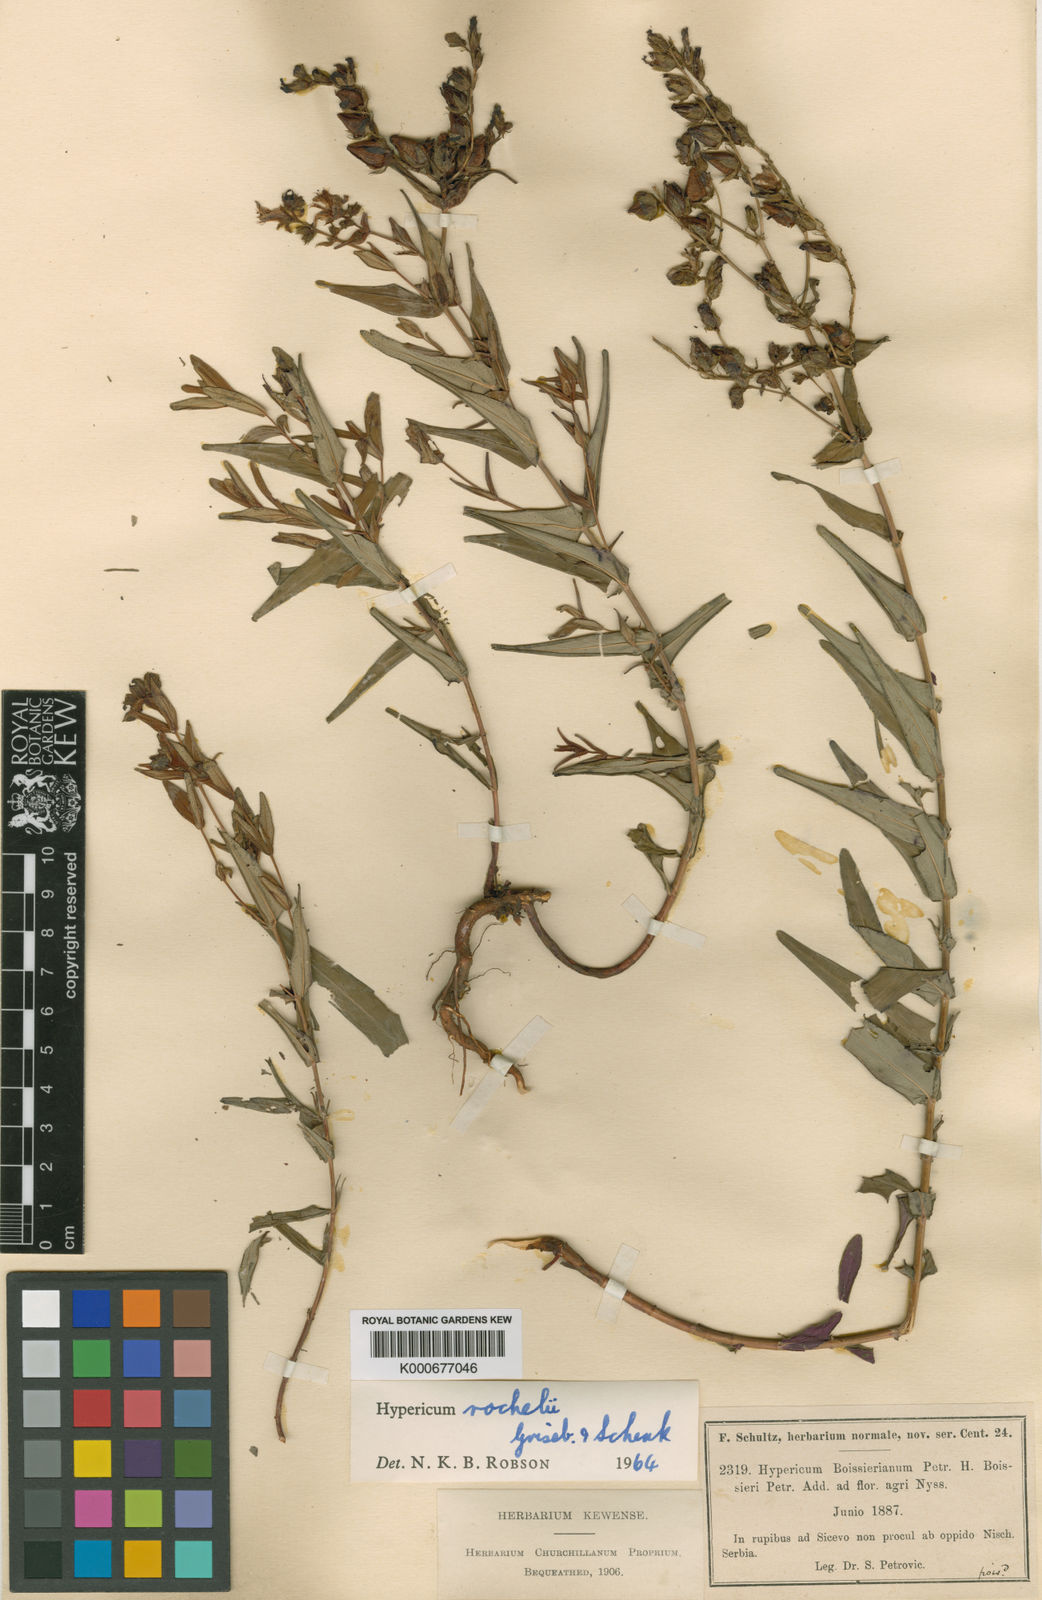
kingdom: Plantae
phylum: Tracheophyta
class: Magnoliopsida
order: Malpighiales
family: Hypericaceae
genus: Hypericum
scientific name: Hypericum rochelii
